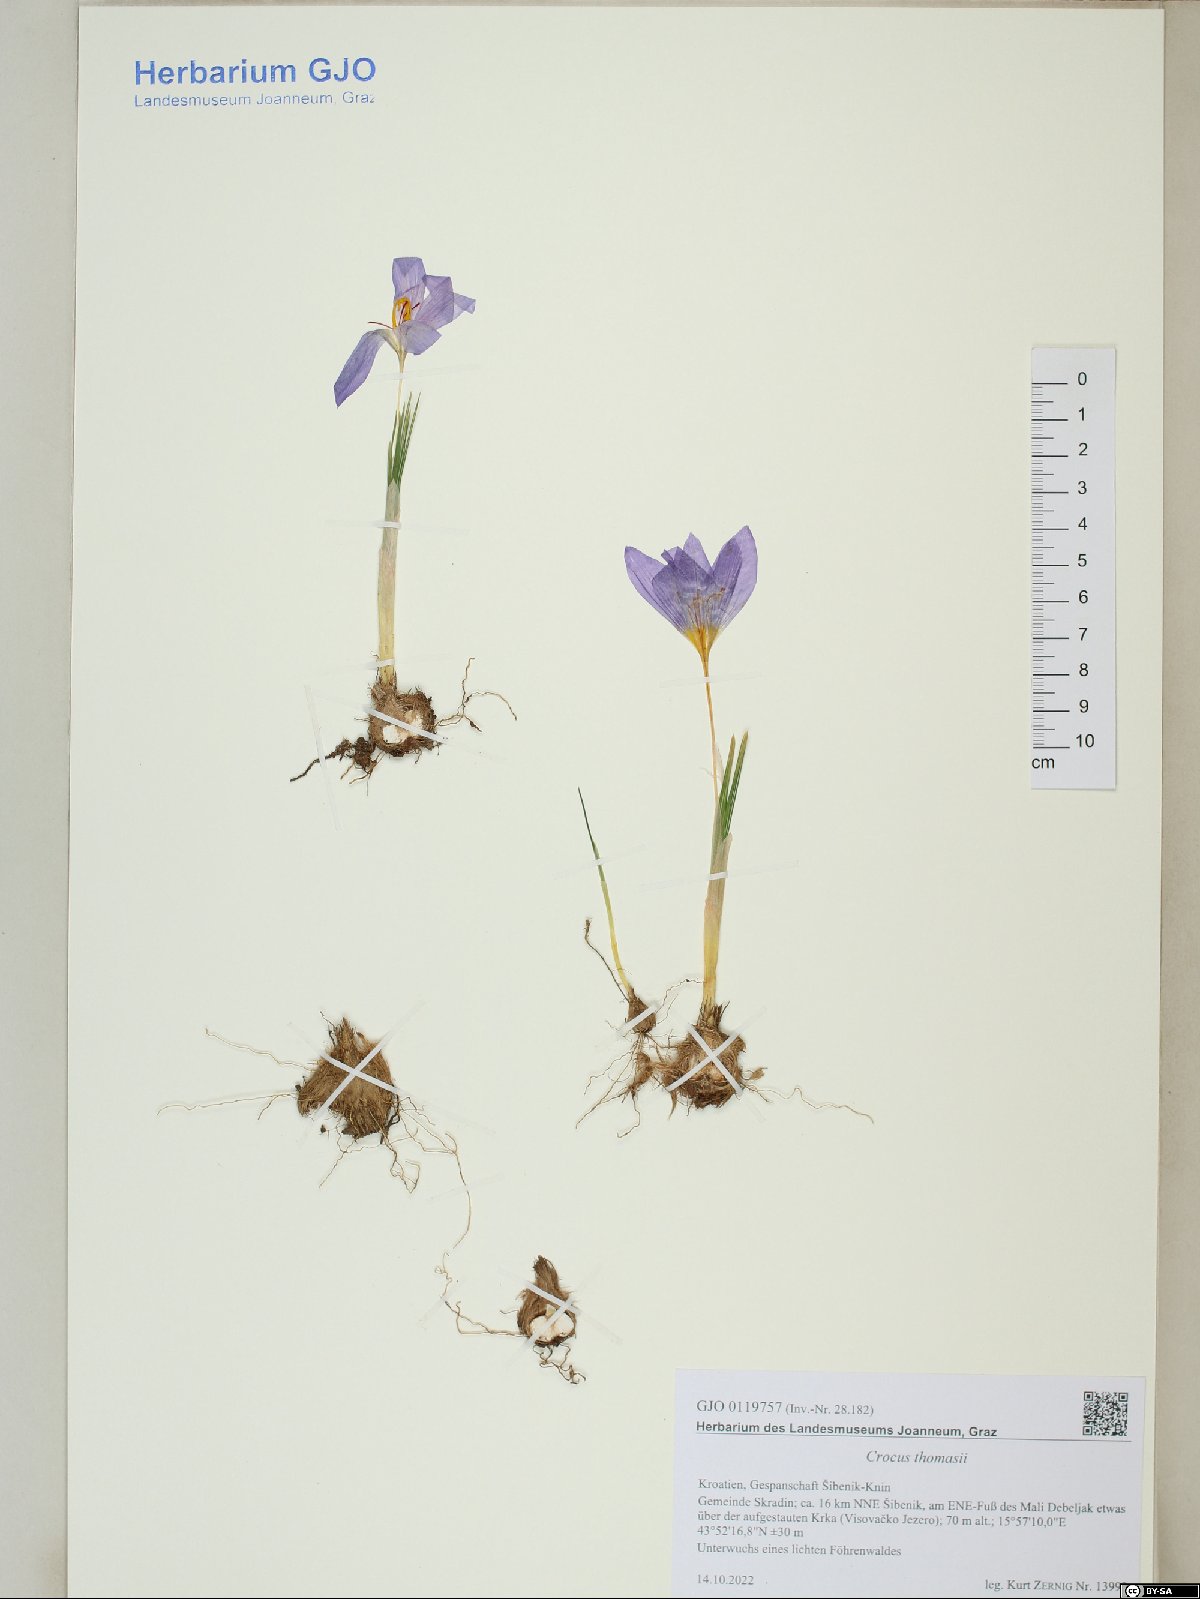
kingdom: Plantae
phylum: Tracheophyta
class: Liliopsida
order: Asparagales
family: Iridaceae
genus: Crocus
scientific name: Crocus thomasii
